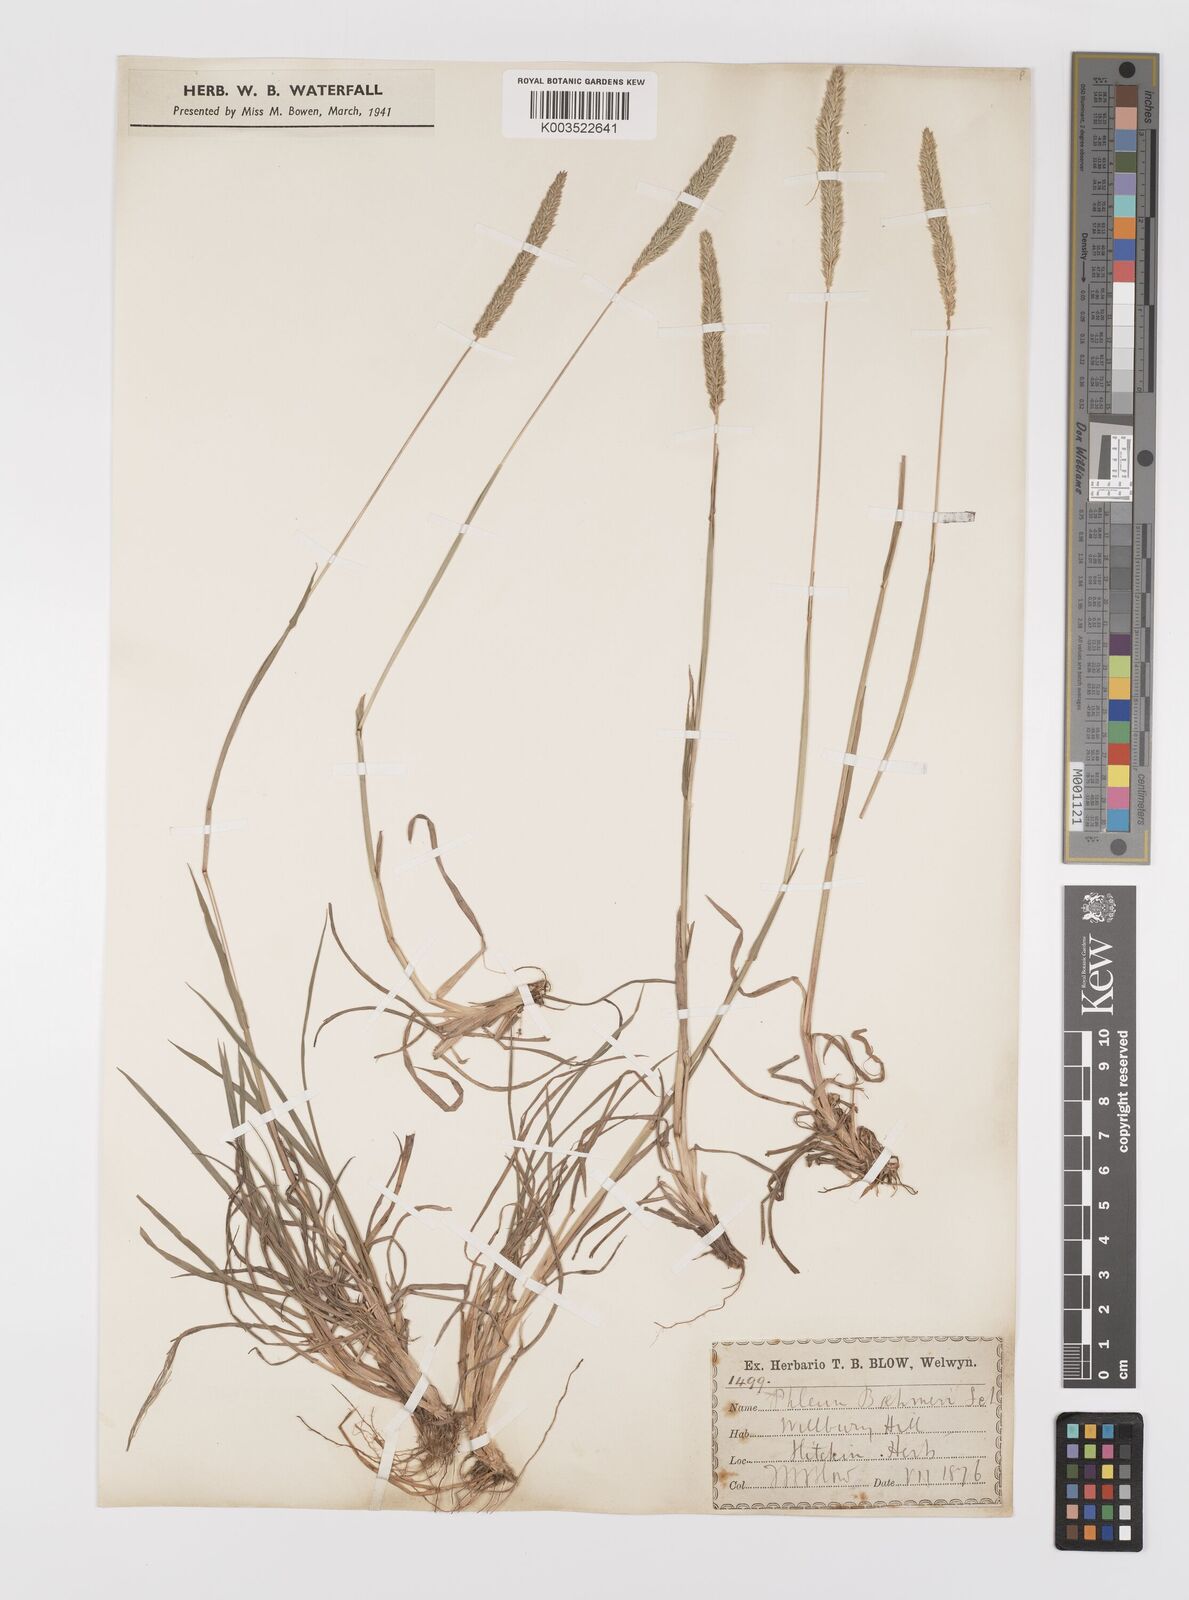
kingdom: Plantae
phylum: Tracheophyta
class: Liliopsida
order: Poales
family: Poaceae
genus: Phleum
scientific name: Phleum phleoides
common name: Purple-stem cat's-tail
